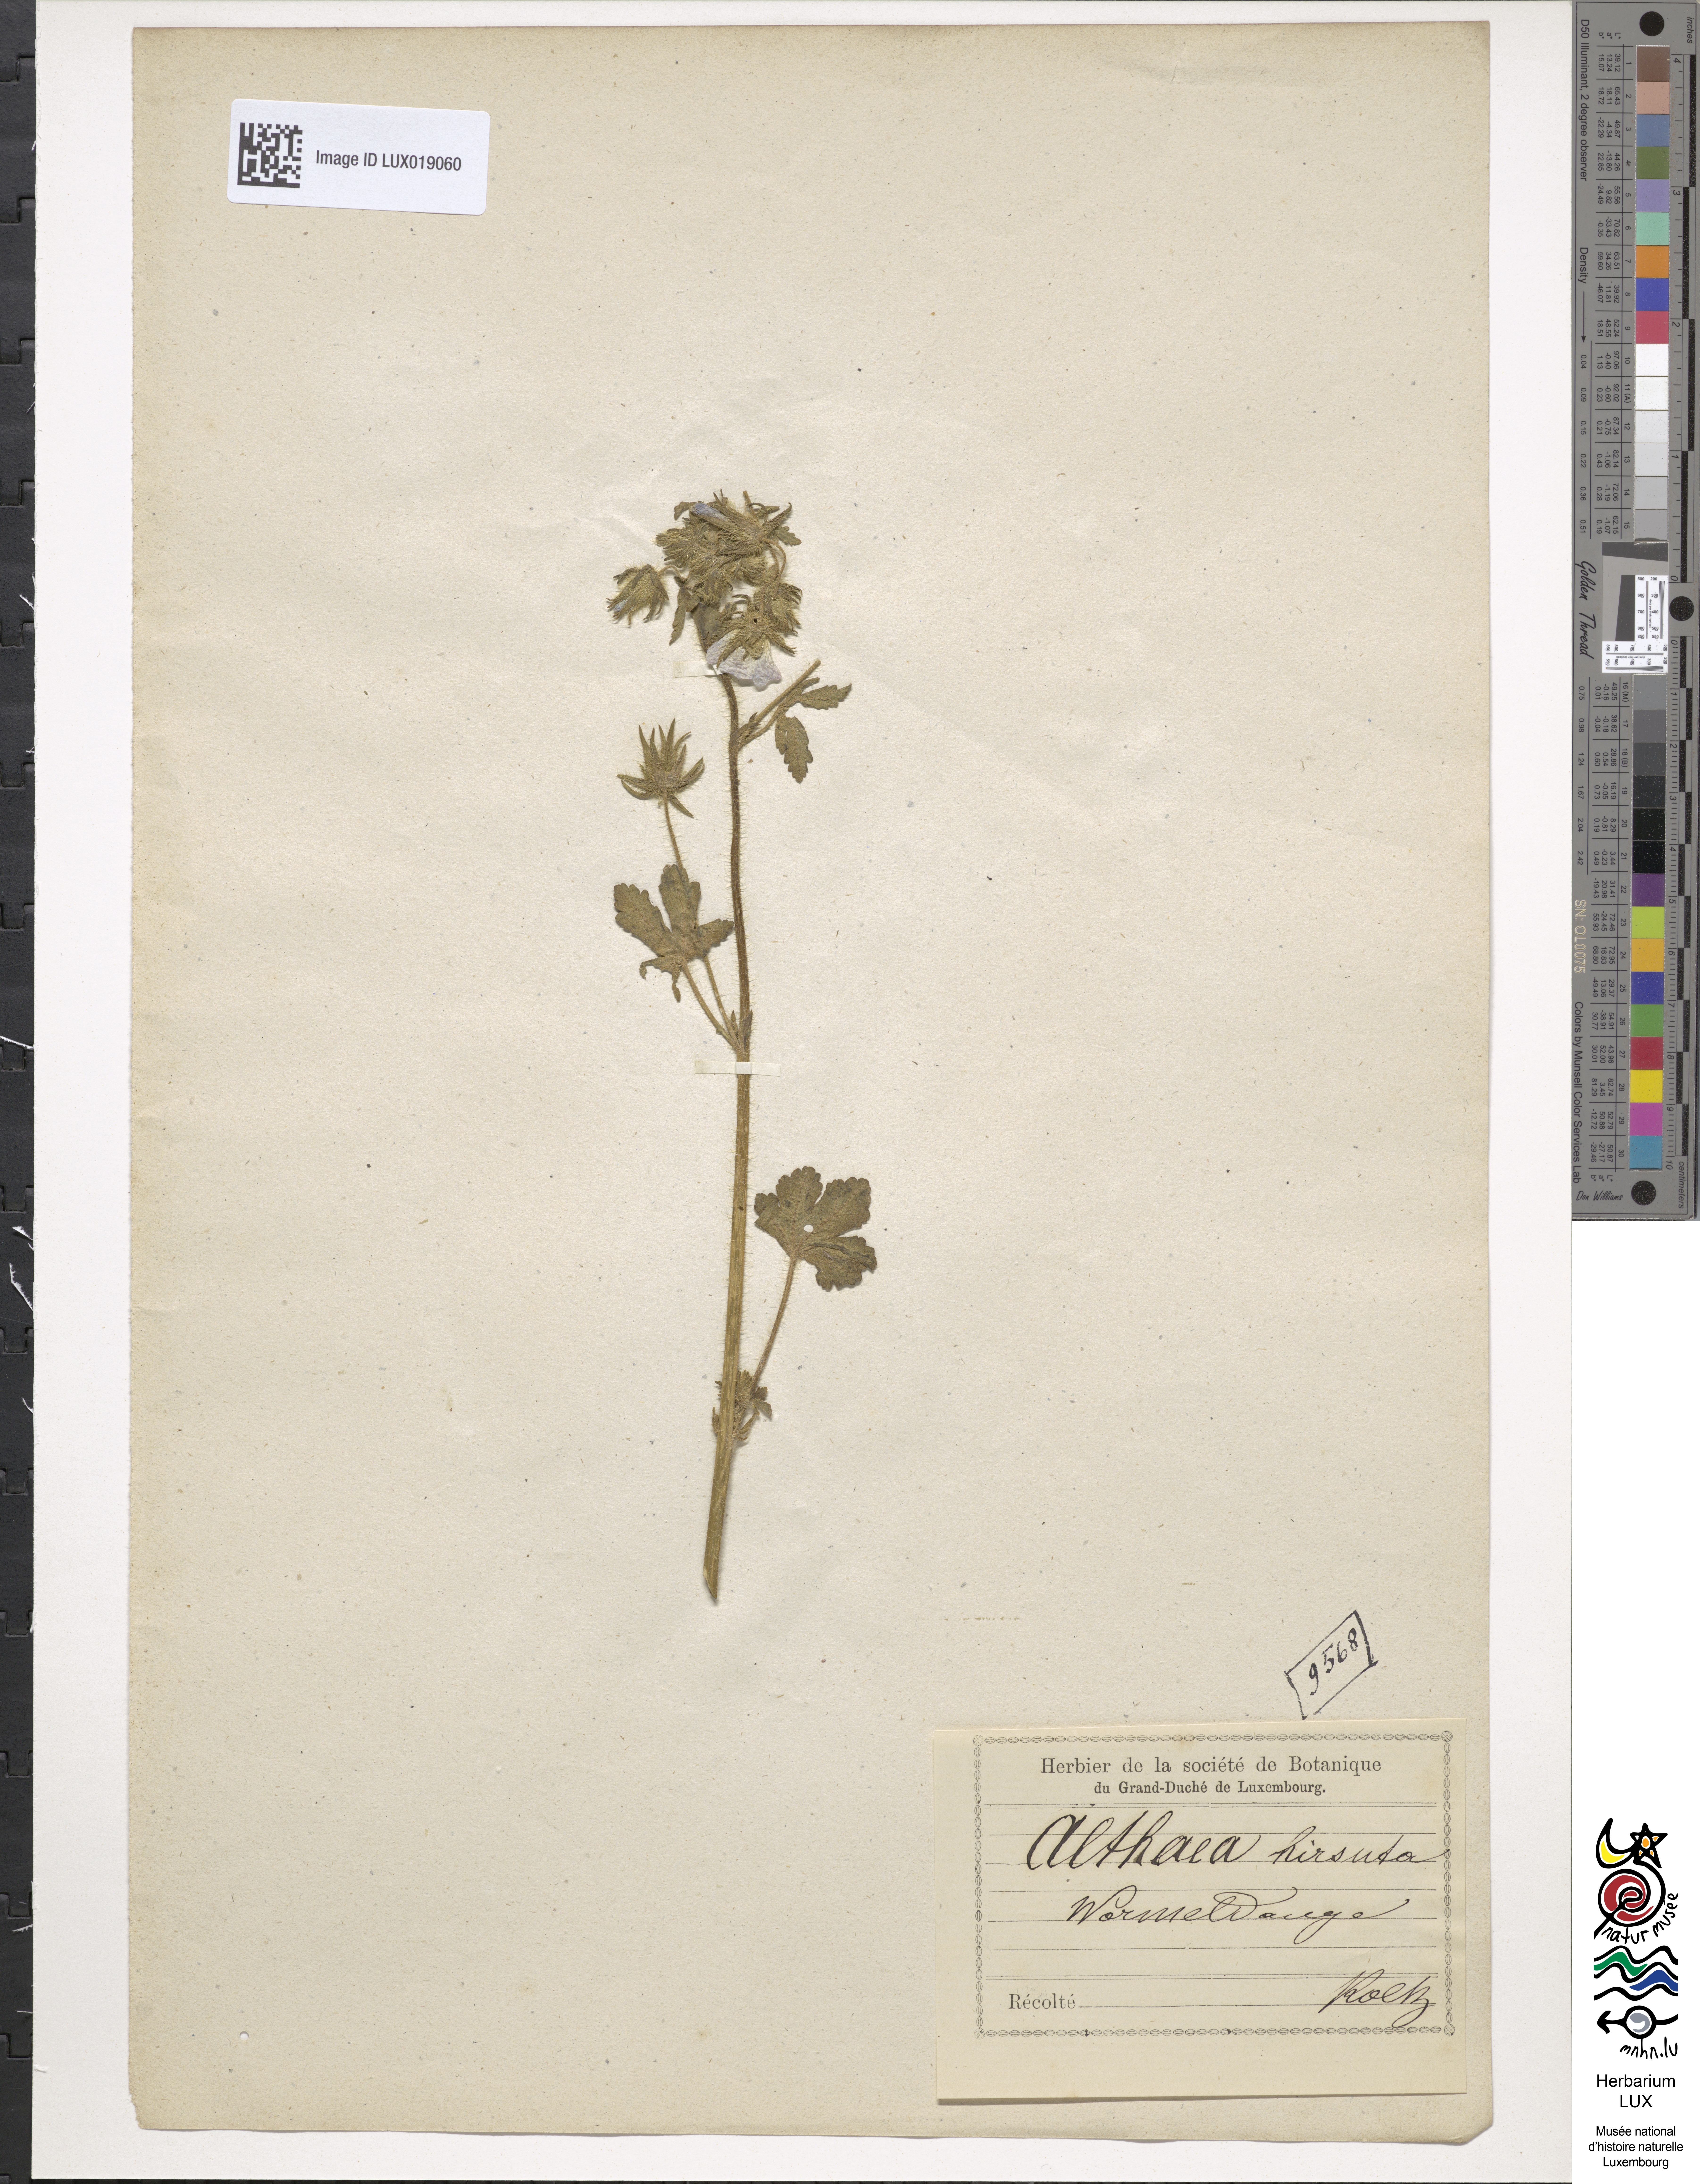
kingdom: Plantae
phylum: Tracheophyta
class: Magnoliopsida
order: Malvales
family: Malvaceae
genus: Althaea
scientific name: Althaea hirsuta
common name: Rough marsh-mallow
